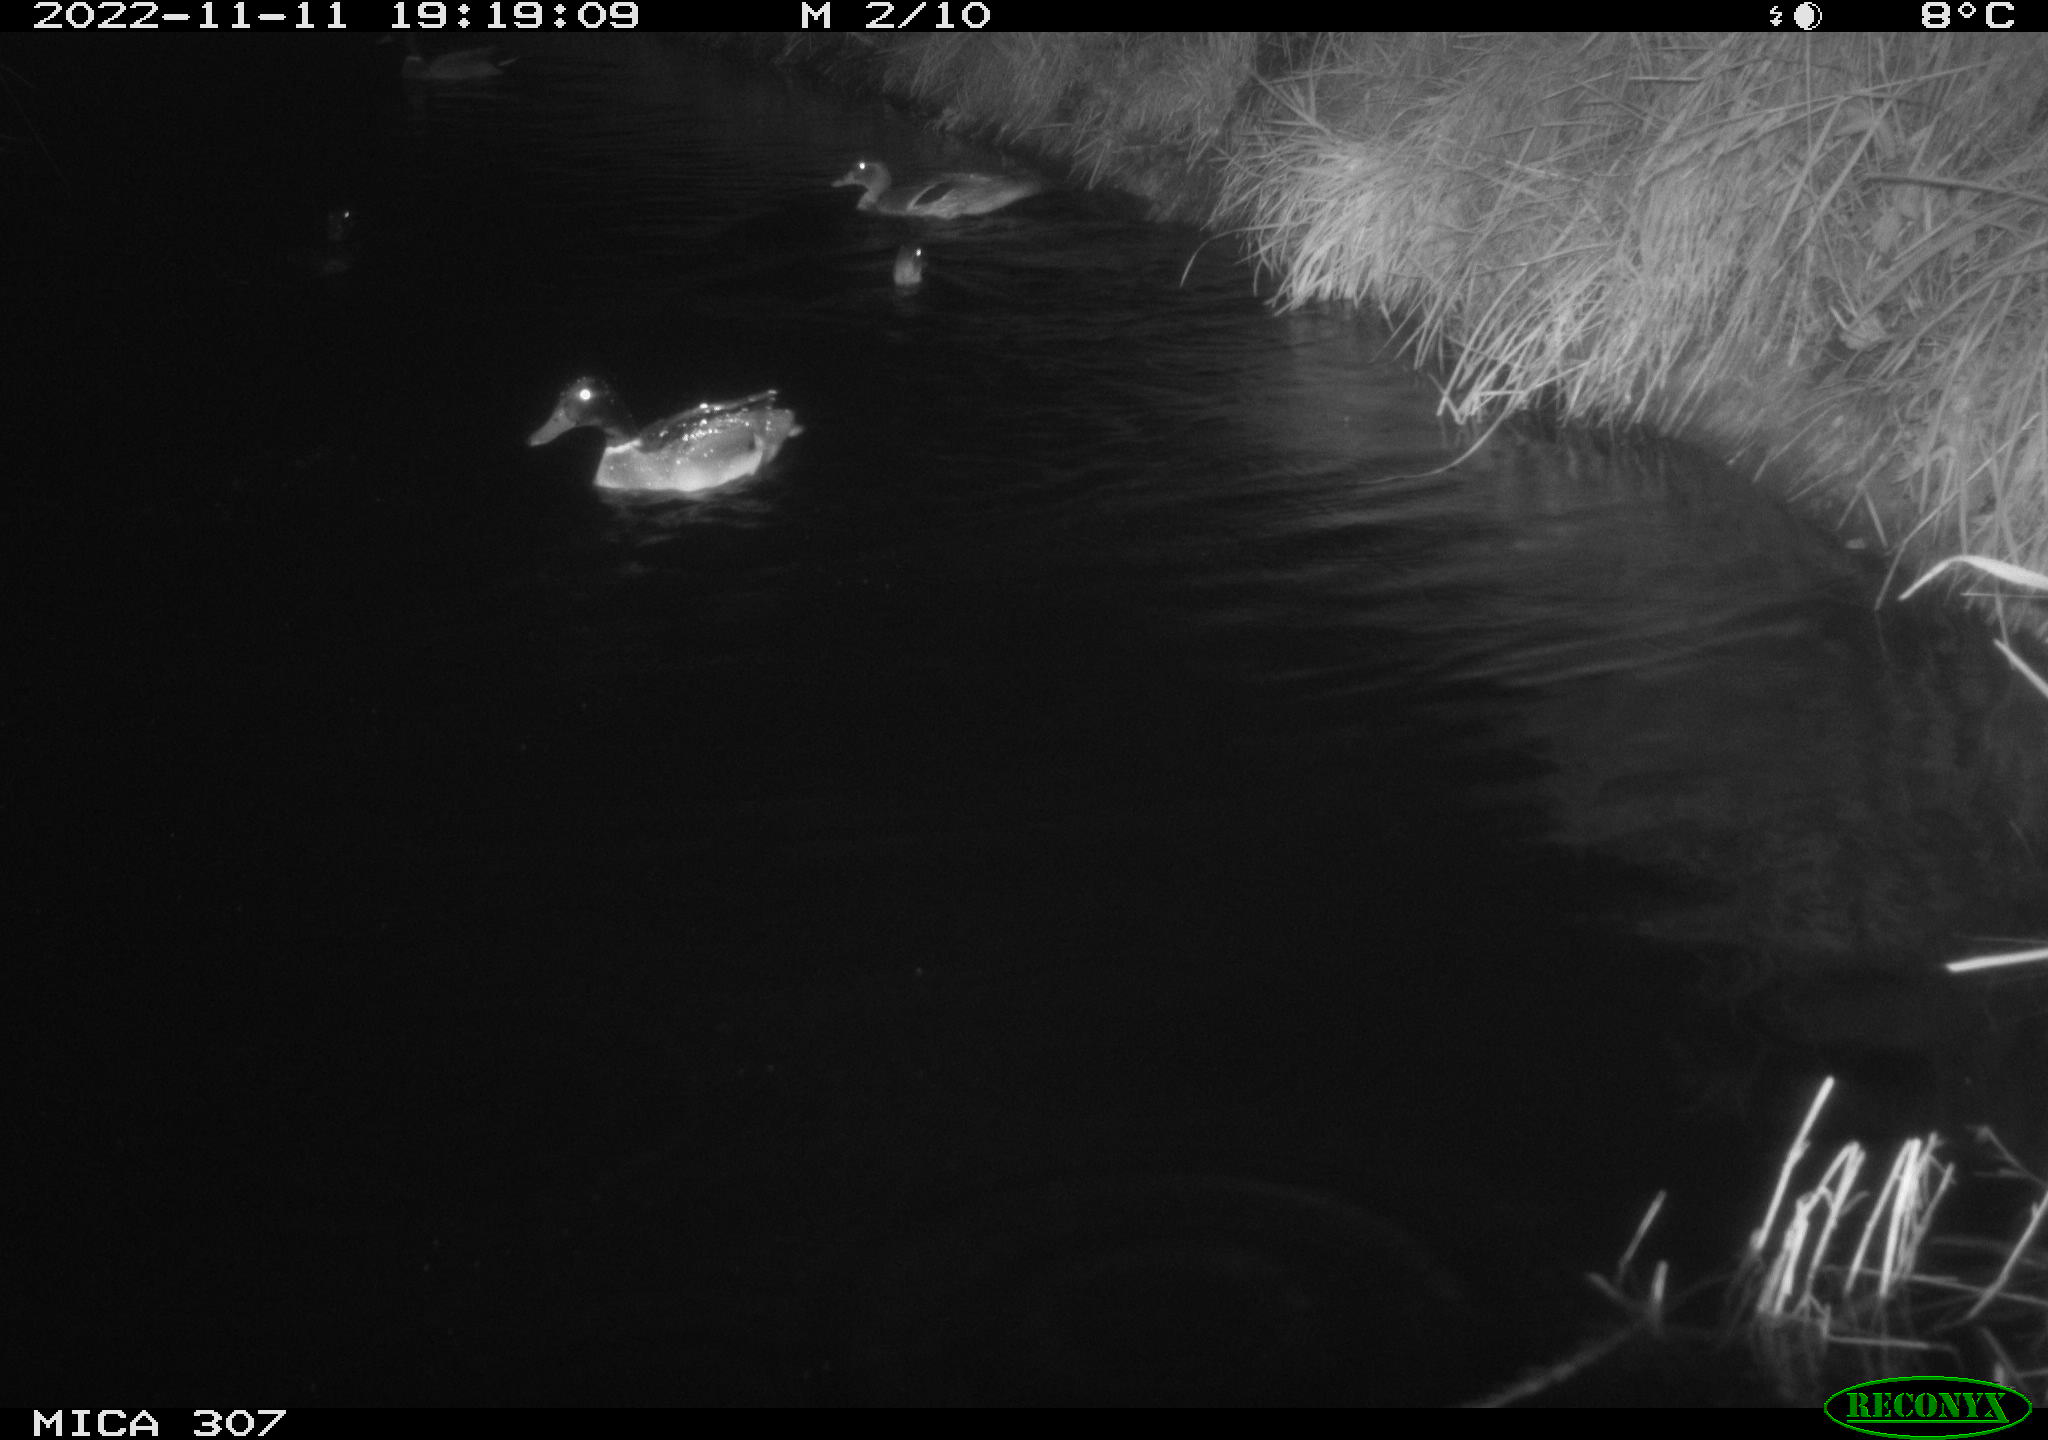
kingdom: Animalia
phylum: Chordata
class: Aves
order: Anseriformes
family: Anatidae
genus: Anas
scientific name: Anas
